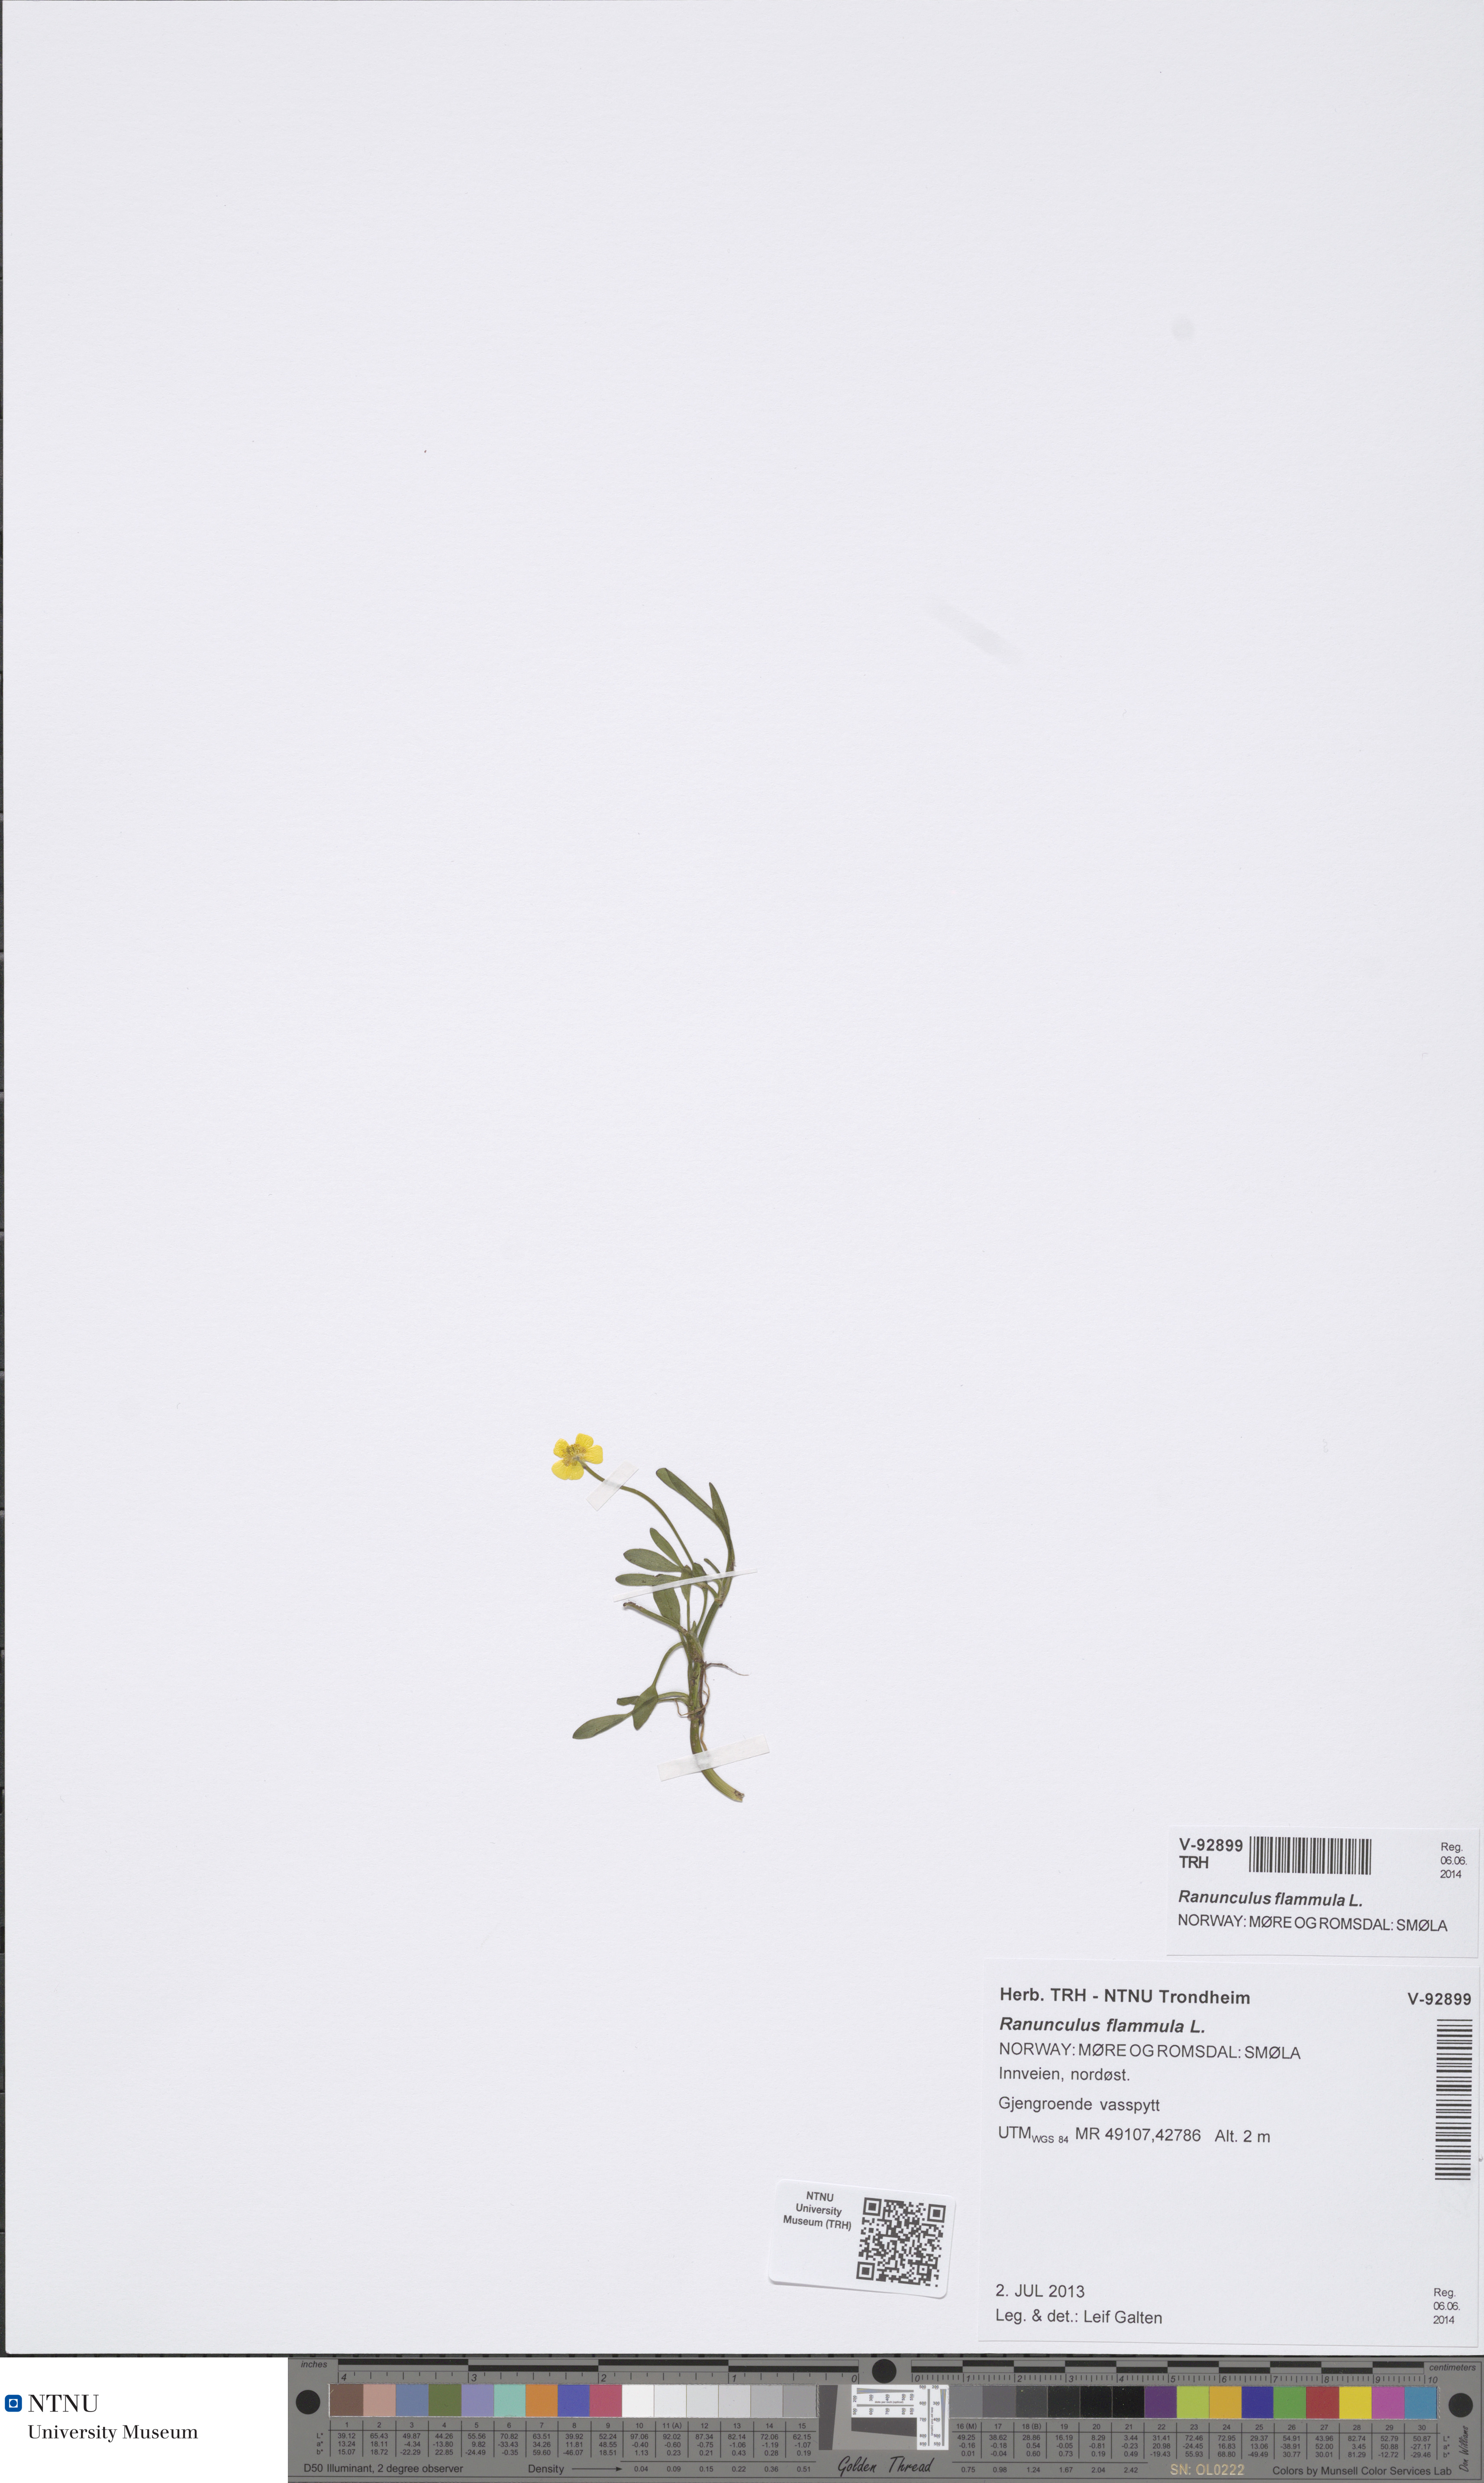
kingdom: Plantae
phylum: Tracheophyta
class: Magnoliopsida
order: Ranunculales
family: Ranunculaceae
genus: Ranunculus
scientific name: Ranunculus flammula
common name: Lesser spearwort
